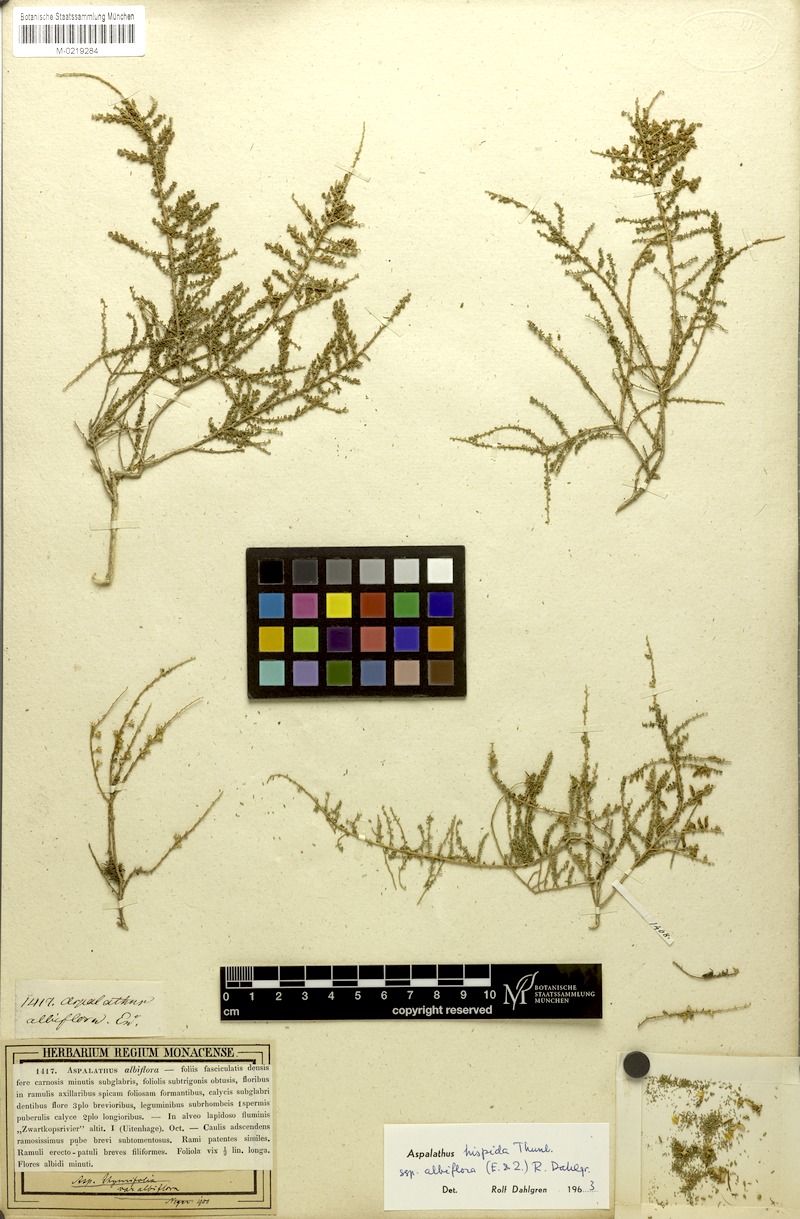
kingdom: Plantae
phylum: Tracheophyta
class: Magnoliopsida
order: Fabales
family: Fabaceae
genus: Aspalathus
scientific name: Aspalathus hispida
